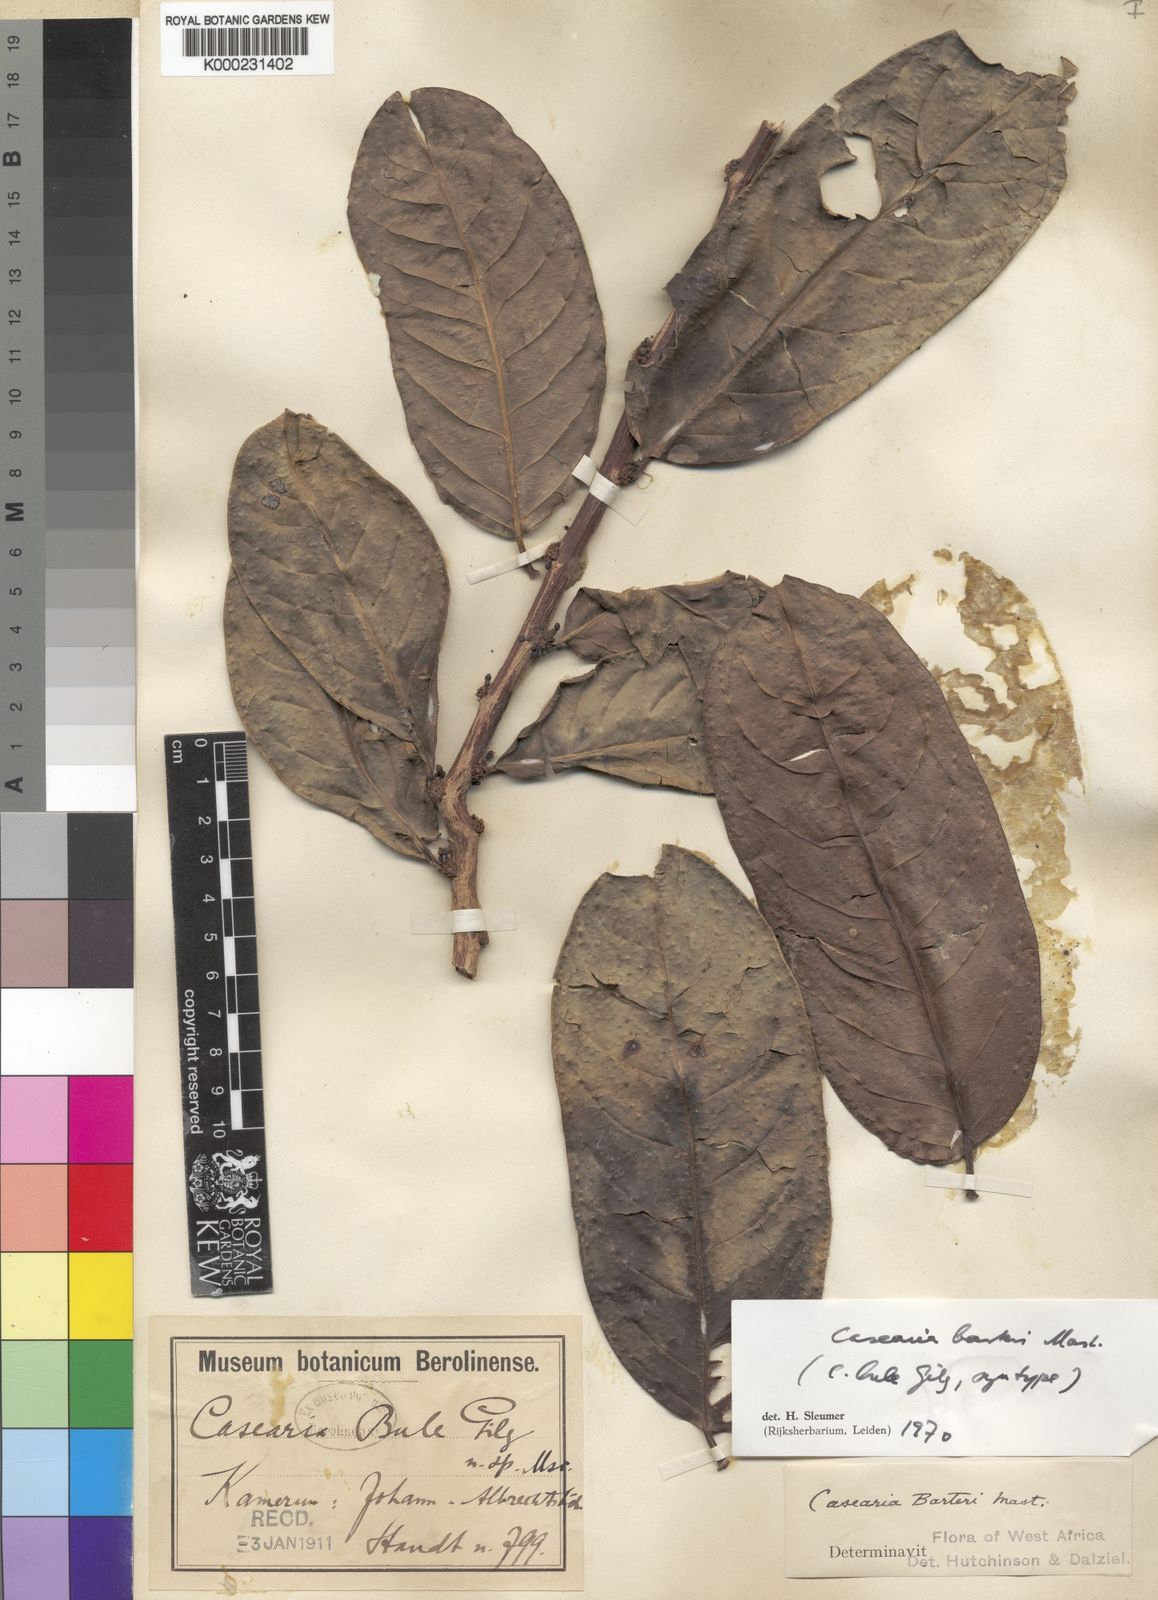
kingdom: Plantae
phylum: Tracheophyta
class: Magnoliopsida
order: Malpighiales
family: Salicaceae
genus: Casearia
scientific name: Casearia barteri
